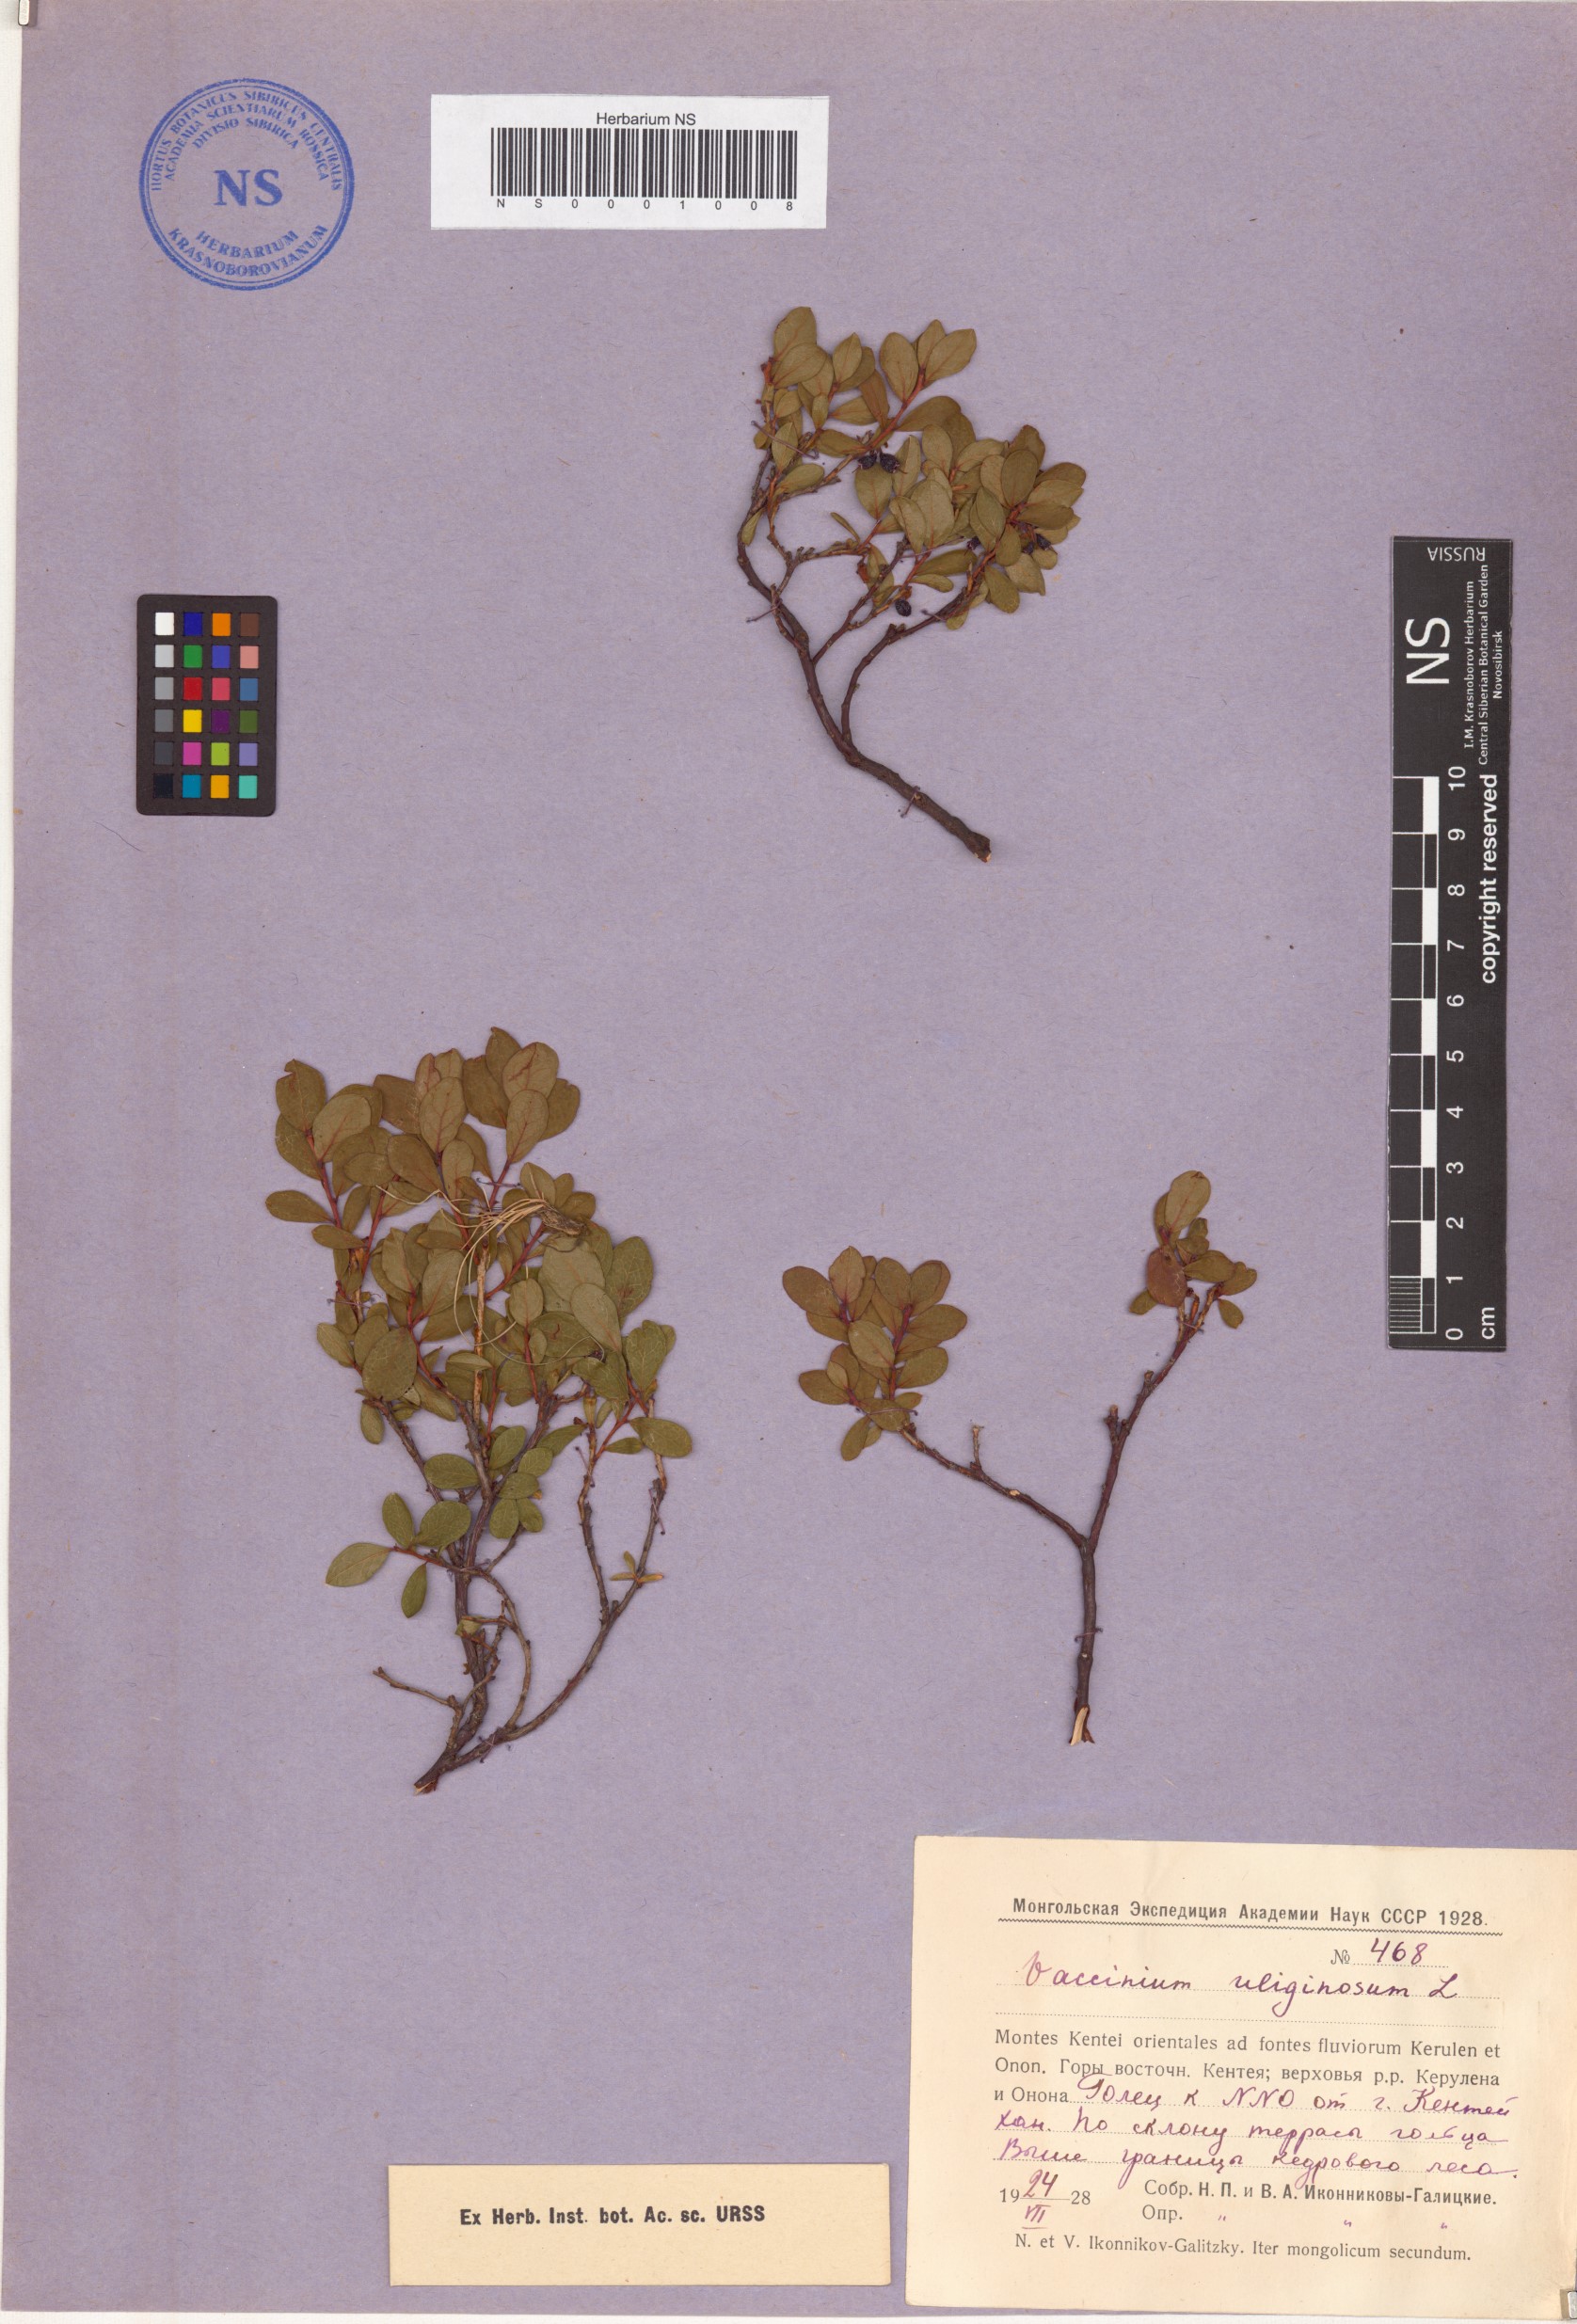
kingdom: Plantae
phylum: Tracheophyta
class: Magnoliopsida
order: Ericales
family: Ericaceae
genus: Vaccinium
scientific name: Vaccinium uliginosum
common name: Bog bilberry
